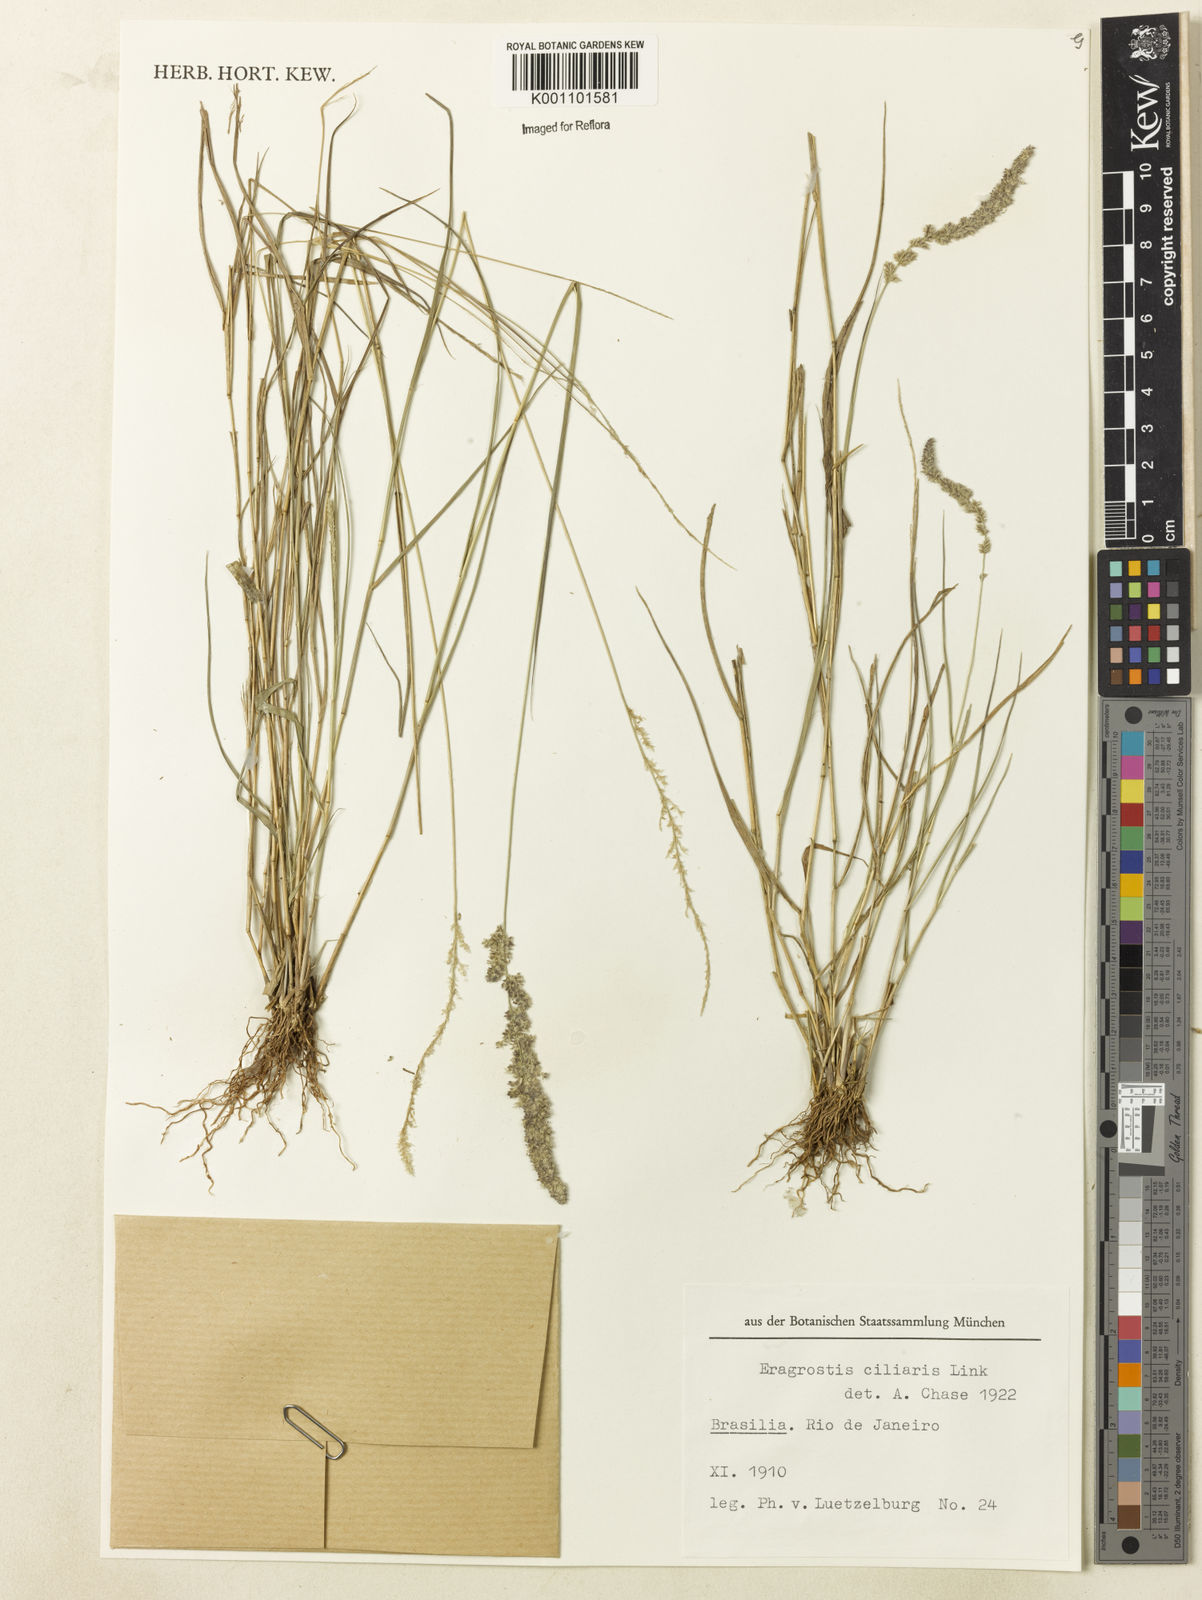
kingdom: Plantae
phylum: Tracheophyta
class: Liliopsida
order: Poales
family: Poaceae
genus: Eragrostis
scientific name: Eragrostis ciliaris
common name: Gophertail lovegrass
